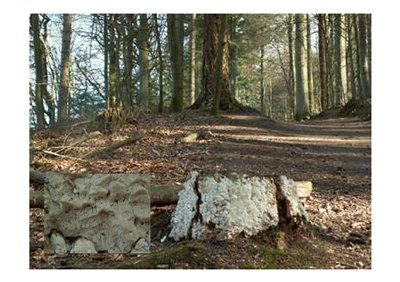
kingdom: Fungi
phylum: Basidiomycota
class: Agaricomycetes
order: Polyporales
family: Fomitopsidaceae
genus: Daedalea
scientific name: Daedalea xantha
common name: gul sejporesvamp
